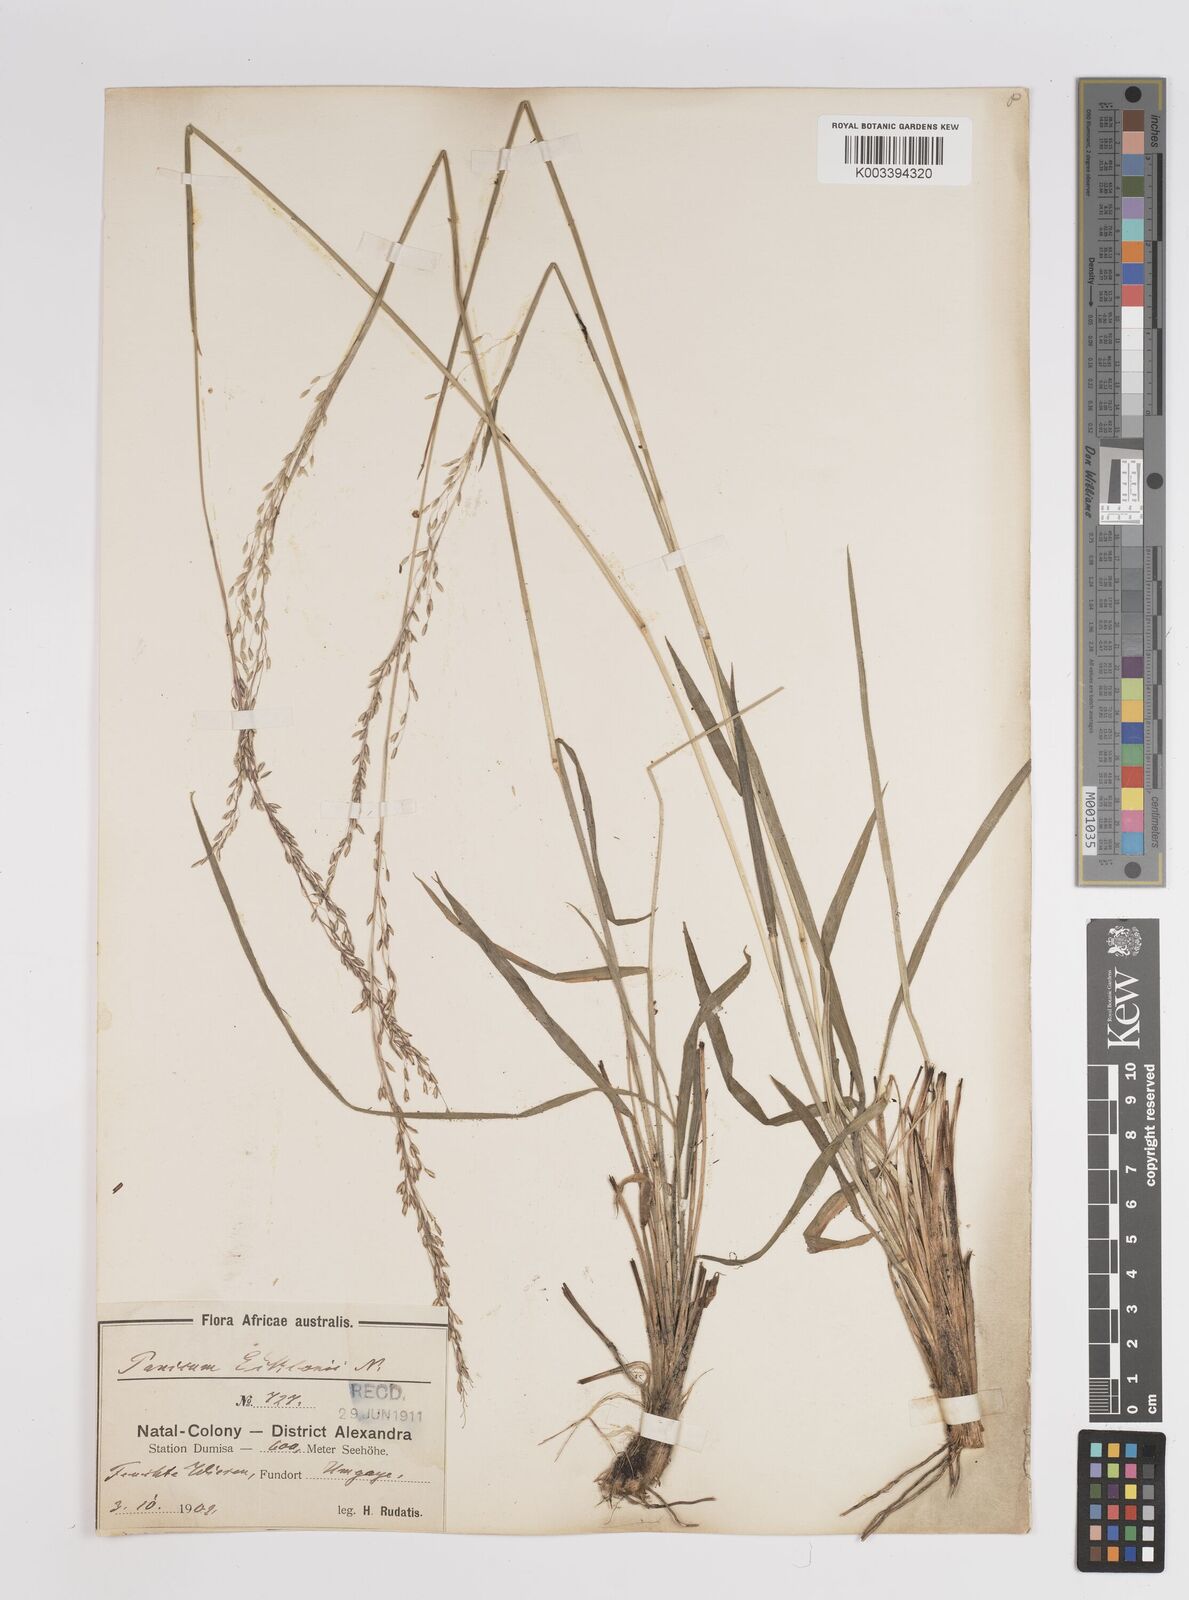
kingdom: Plantae
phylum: Tracheophyta
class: Liliopsida
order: Poales
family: Poaceae
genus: Adenochloa
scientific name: Adenochloa ecklonii
